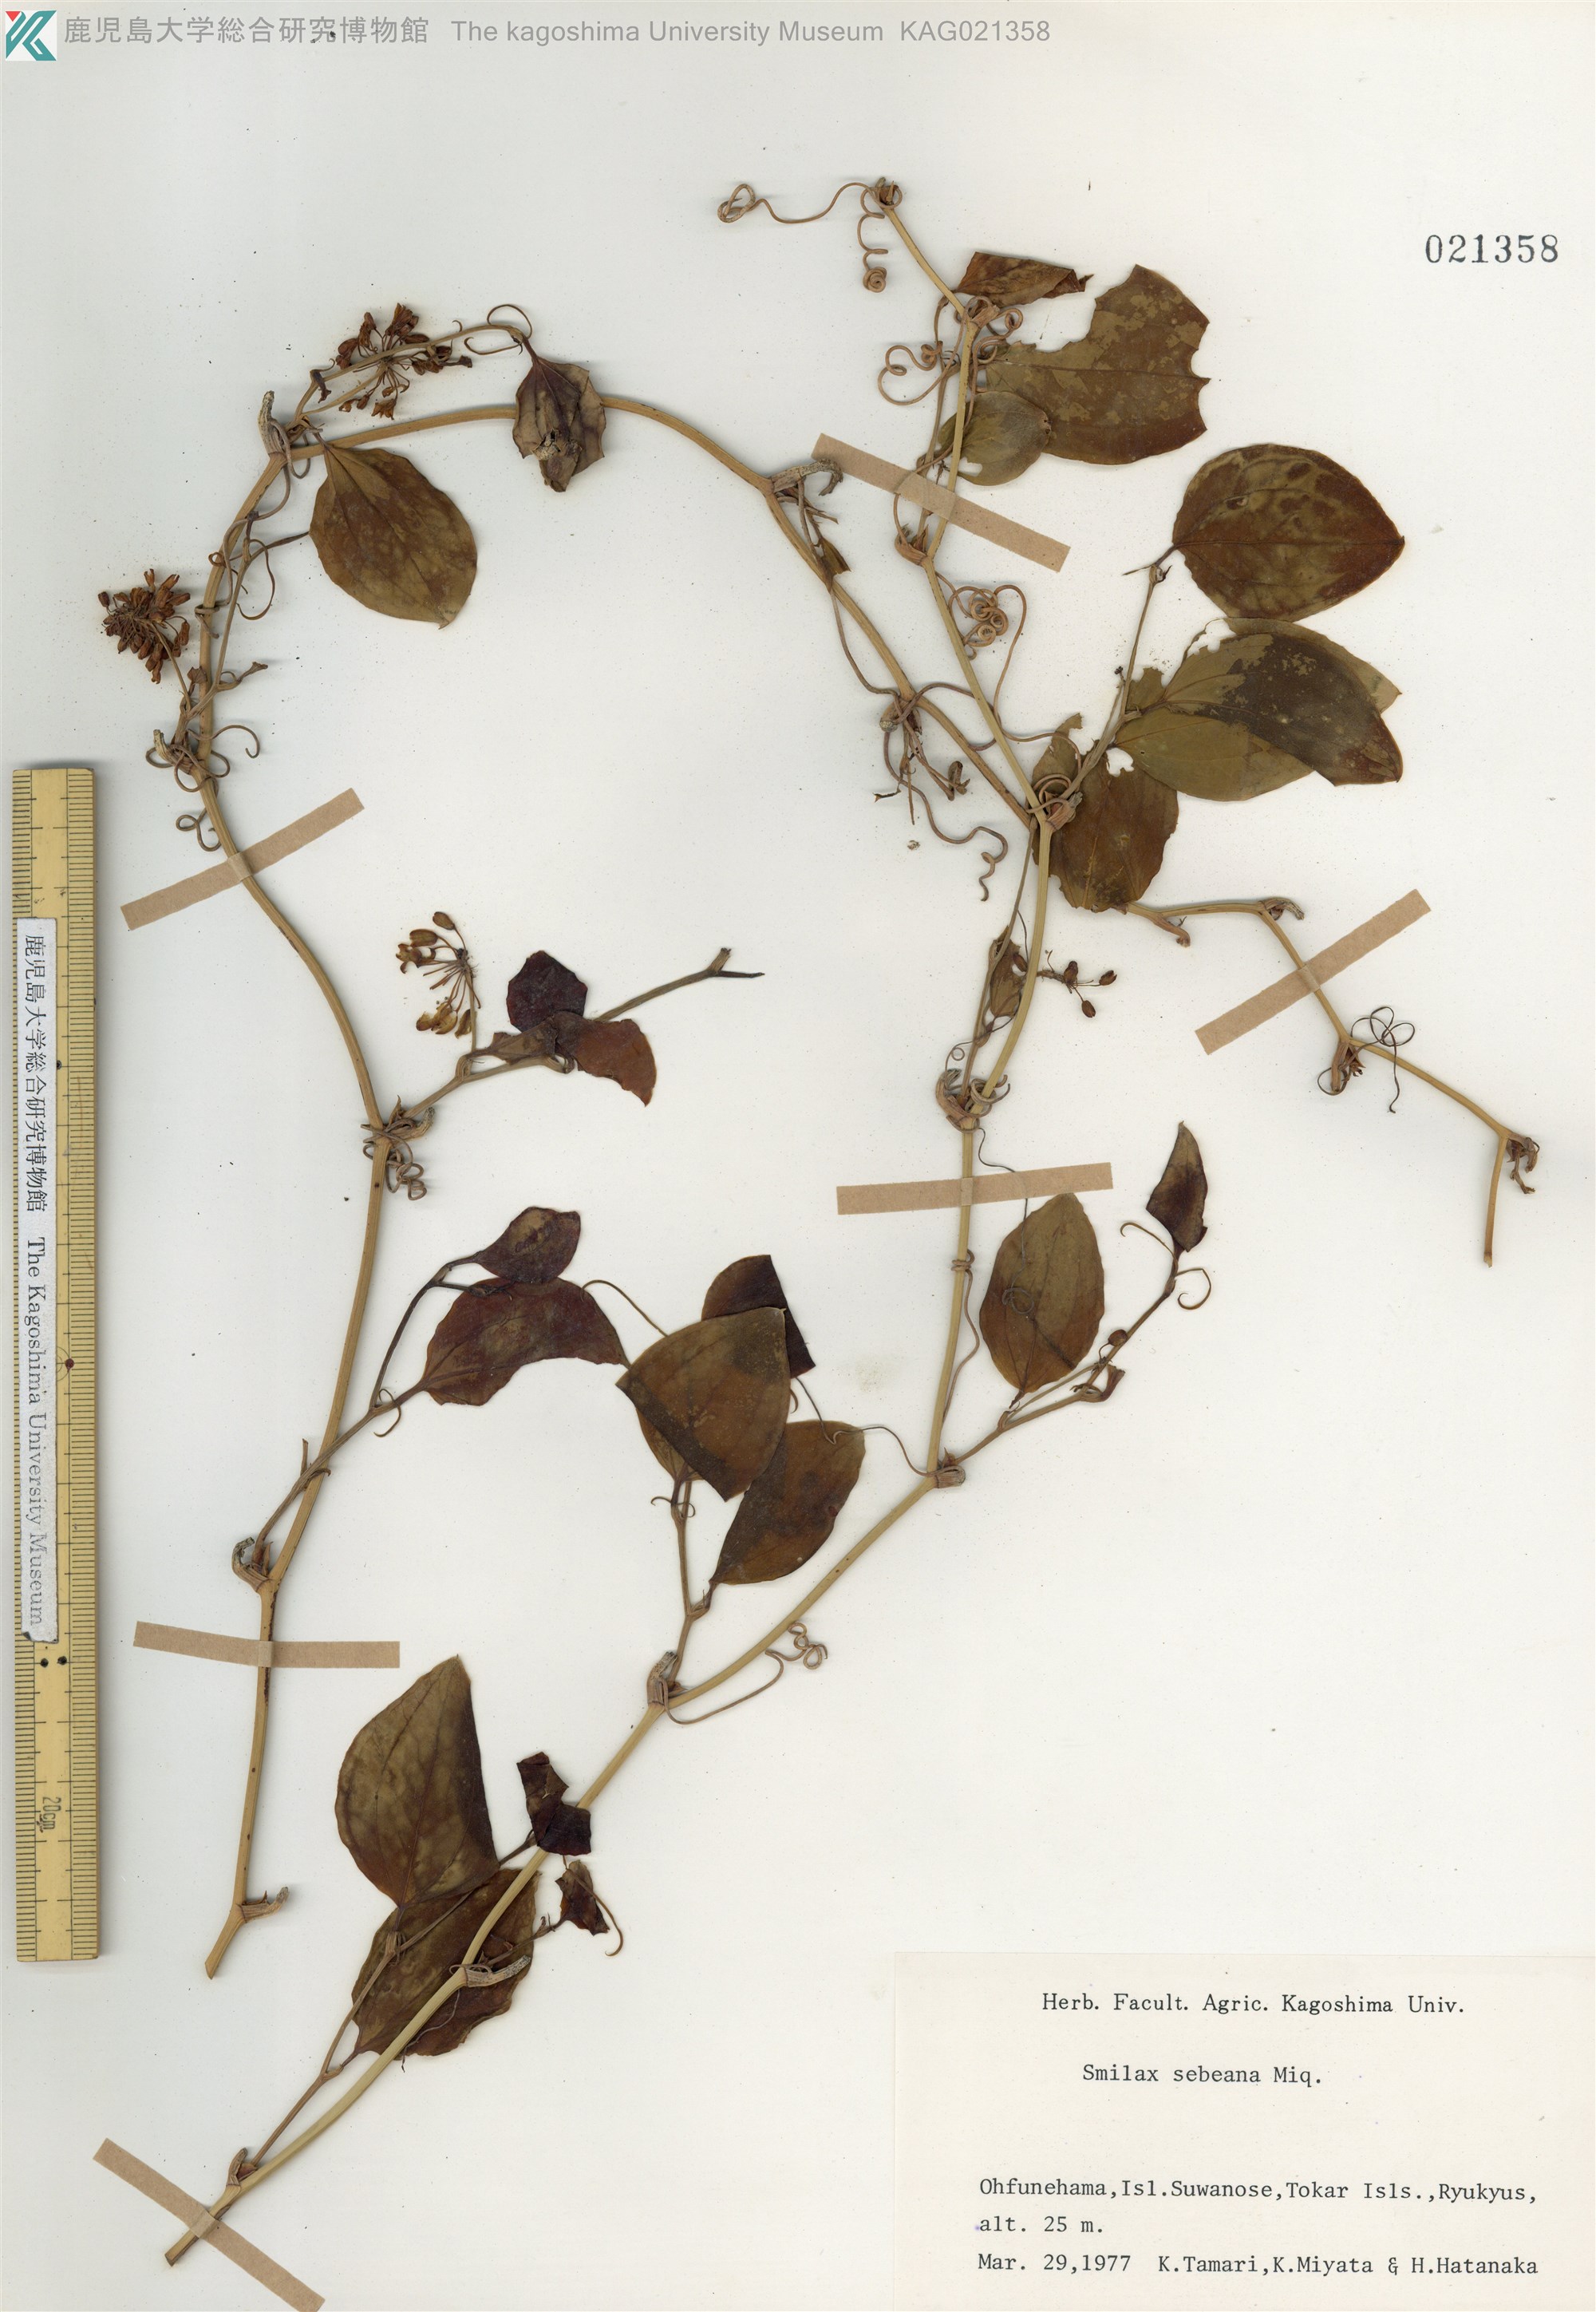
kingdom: Plantae
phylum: Tracheophyta
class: Liliopsida
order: Liliales
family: Smilacaceae
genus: Smilax
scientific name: Smilax sebeana
